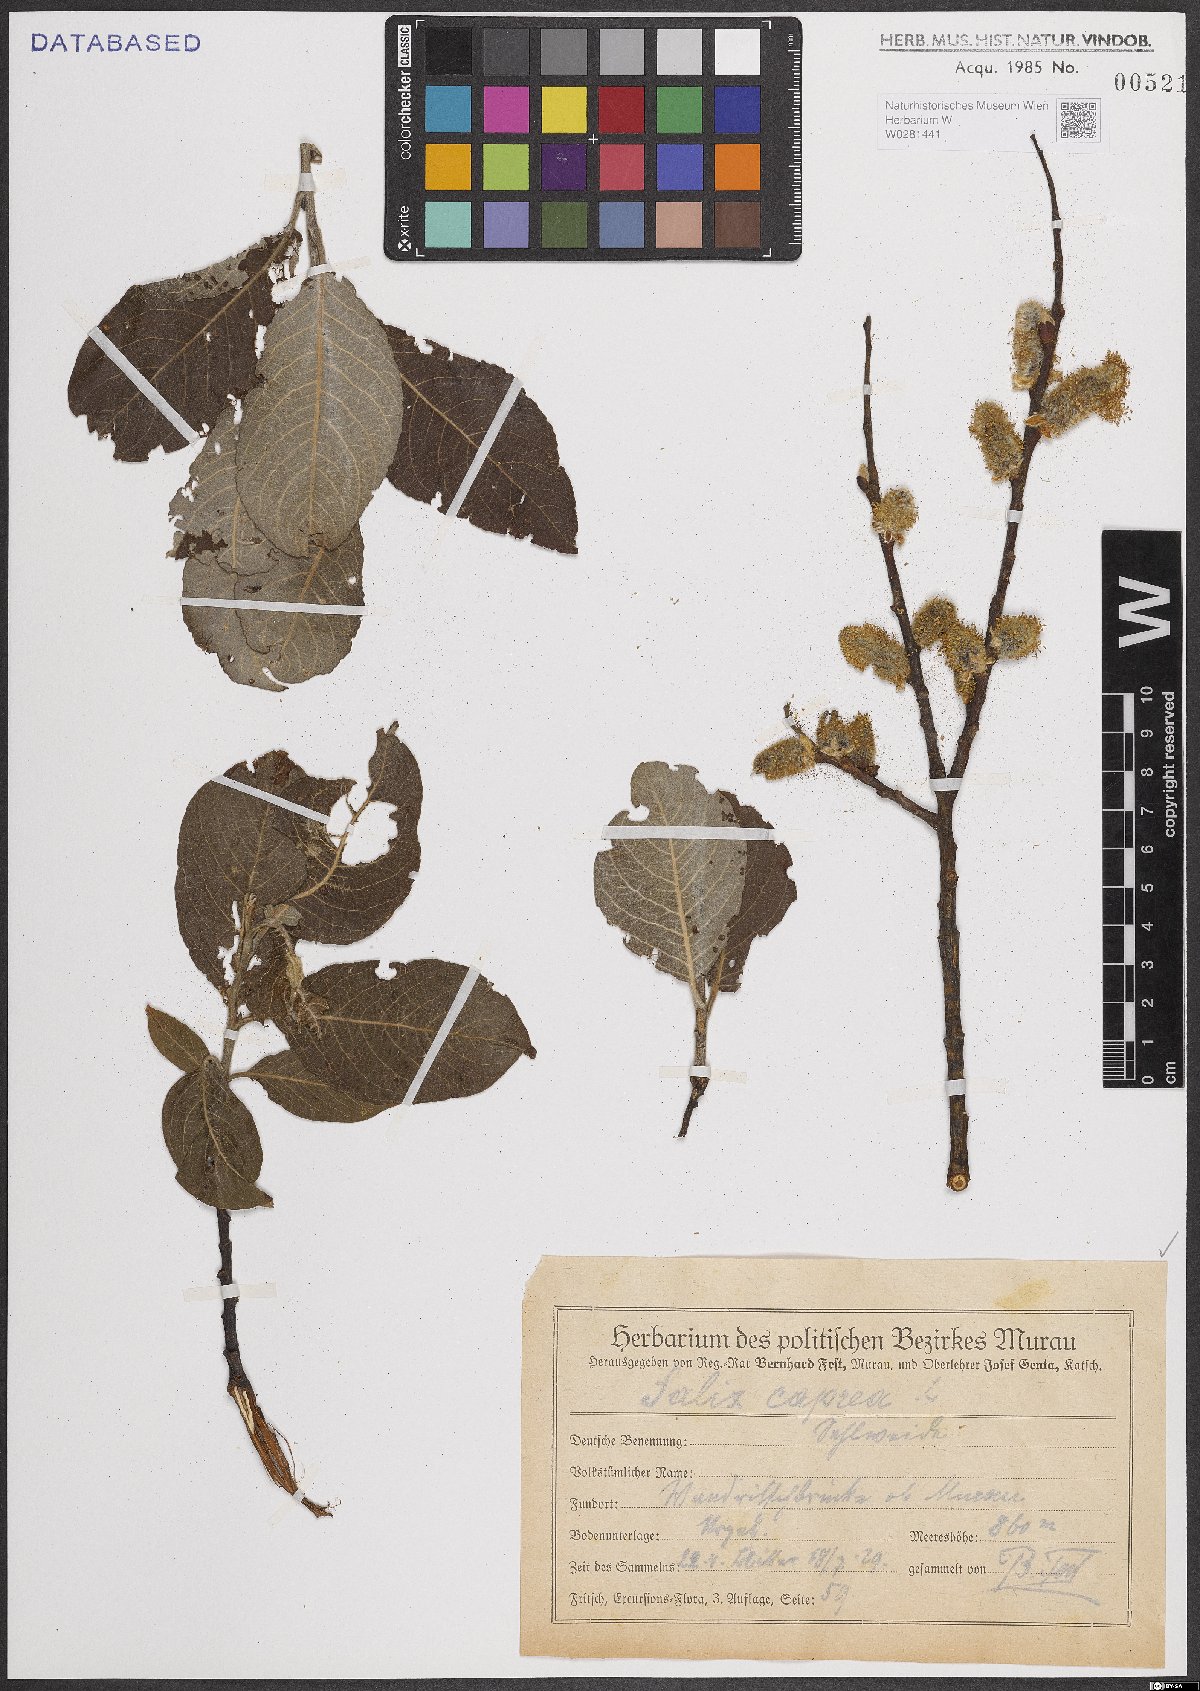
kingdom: Plantae
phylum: Tracheophyta
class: Magnoliopsida
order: Malpighiales
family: Salicaceae
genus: Salix
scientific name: Salix caprea
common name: Goat willow
